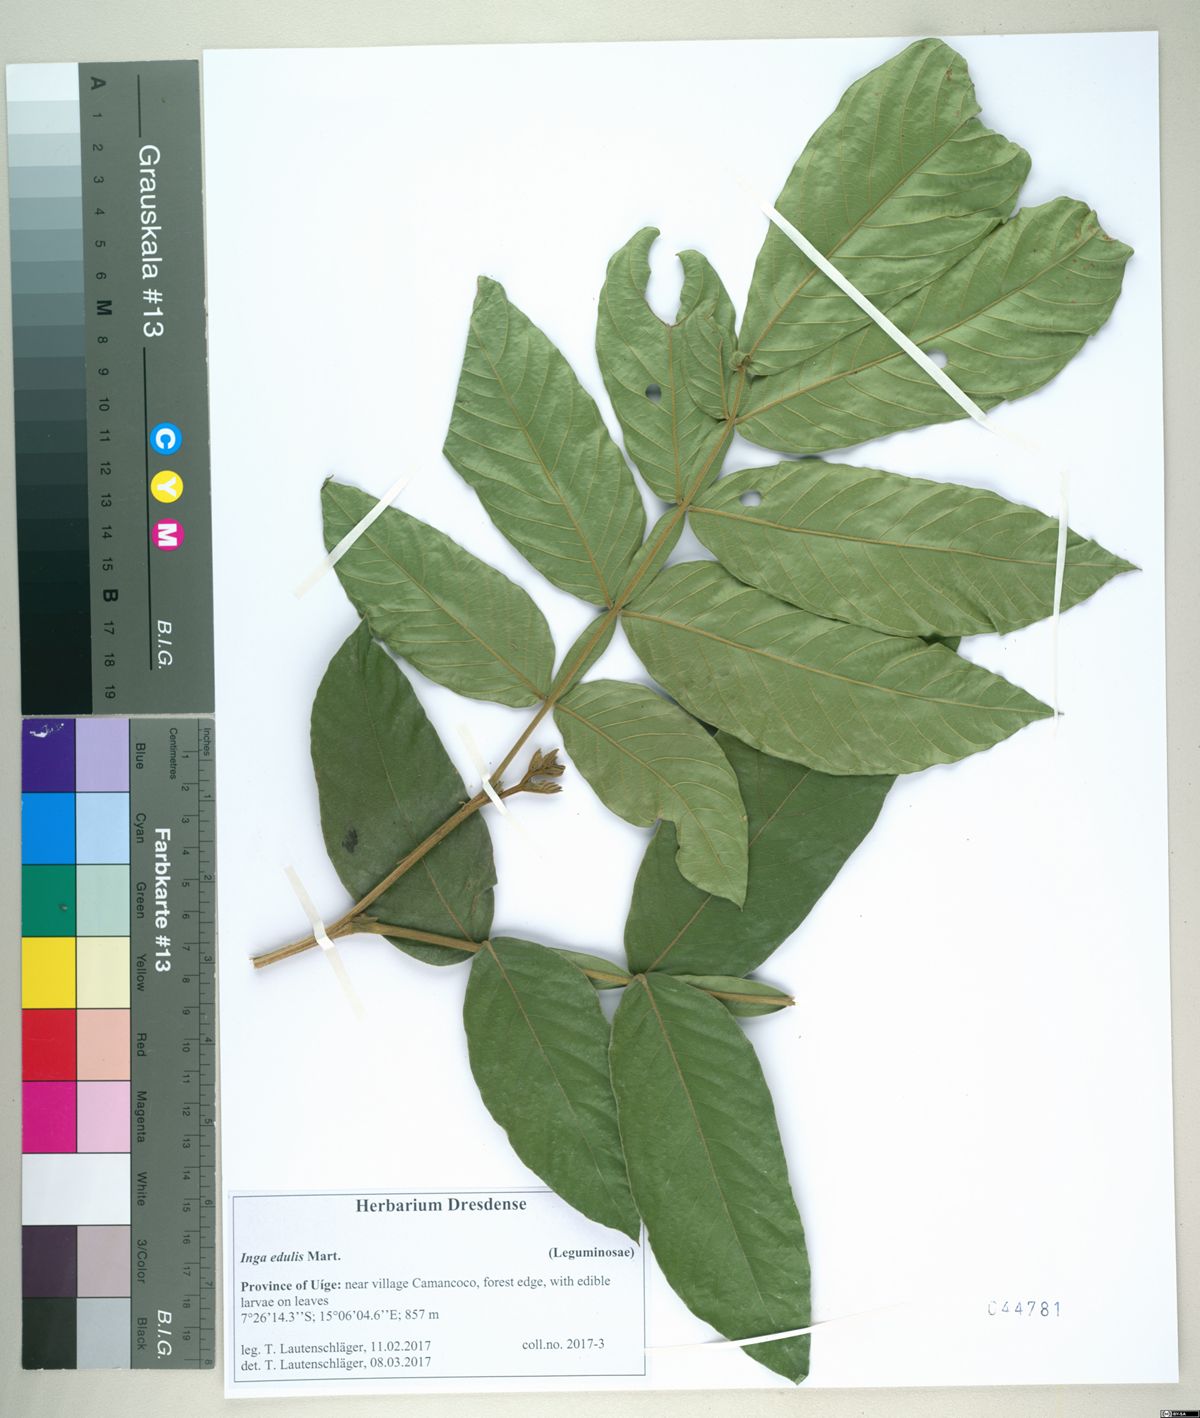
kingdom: Plantae
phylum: Tracheophyta
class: Magnoliopsida
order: Fabales
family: Fabaceae
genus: Inga
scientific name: Inga edulis
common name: Ice cream bean
